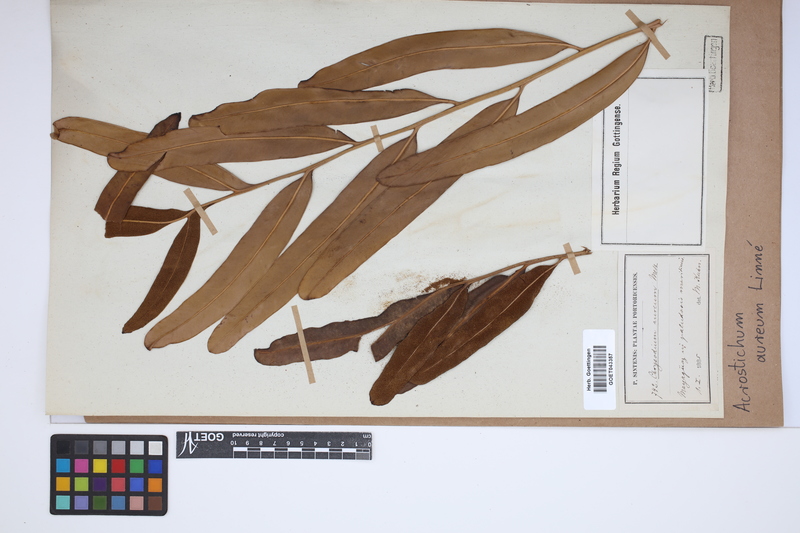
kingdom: Plantae
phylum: Tracheophyta
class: Polypodiopsida
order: Polypodiales
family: Pteridaceae
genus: Acrostichum
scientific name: Acrostichum aureum
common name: Leather fern
